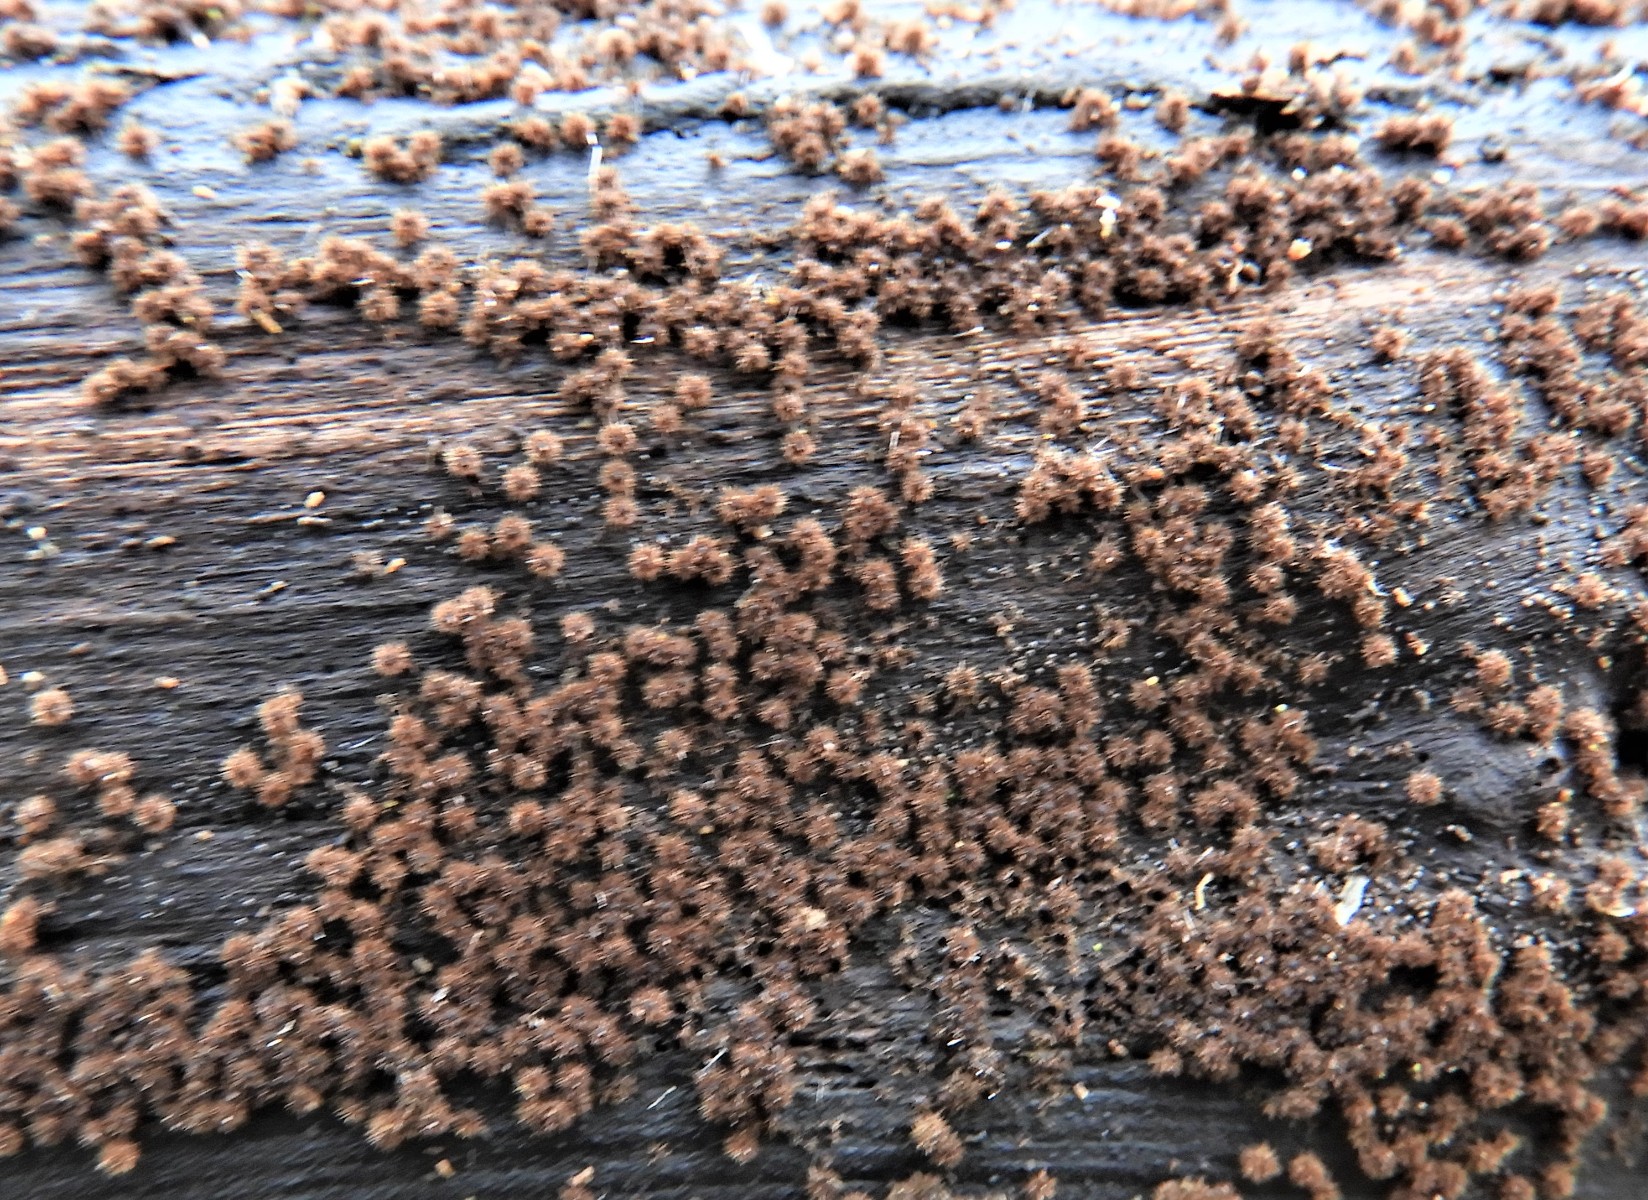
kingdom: Fungi
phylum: Ascomycota
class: Sordariomycetes
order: Sordariales
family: Helminthosphaeriaceae
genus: Echinosphaeria
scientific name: Echinosphaeria
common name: børstekerne
